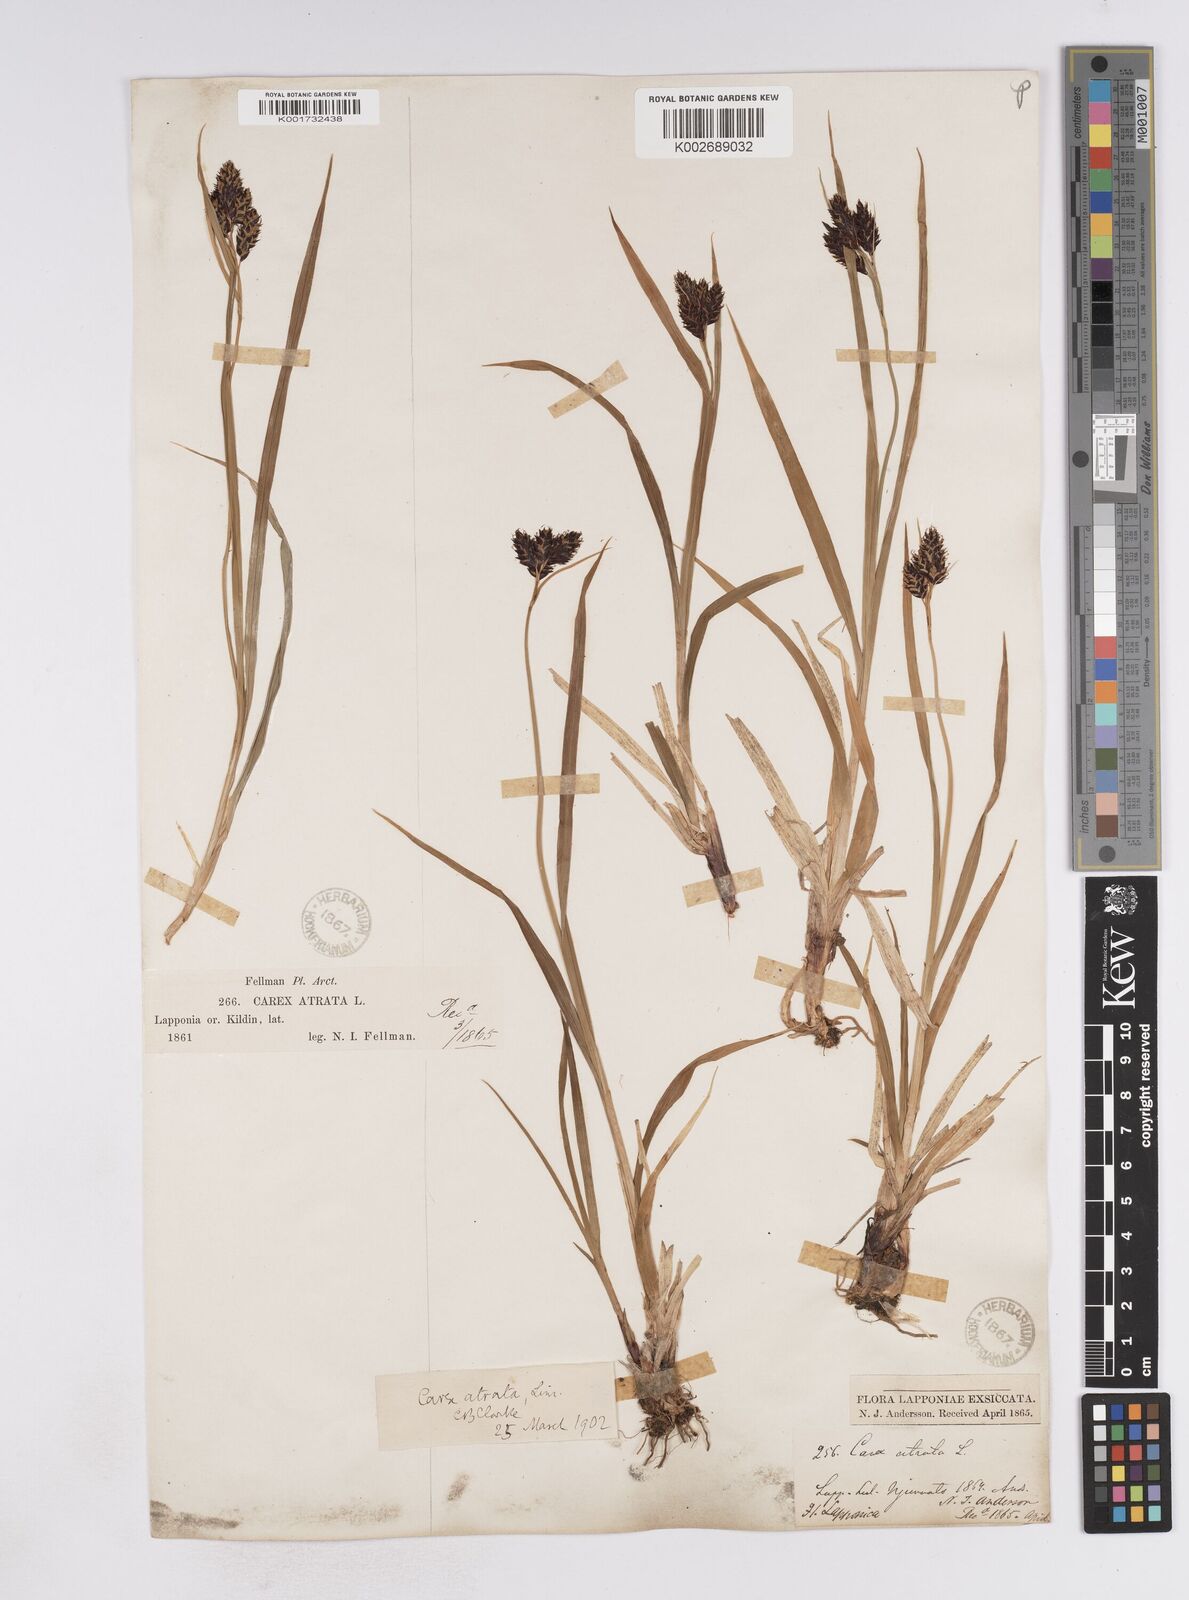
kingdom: Plantae
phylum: Tracheophyta
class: Liliopsida
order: Poales
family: Cyperaceae
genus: Carex
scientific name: Carex atrata
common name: Black alpine sedge
